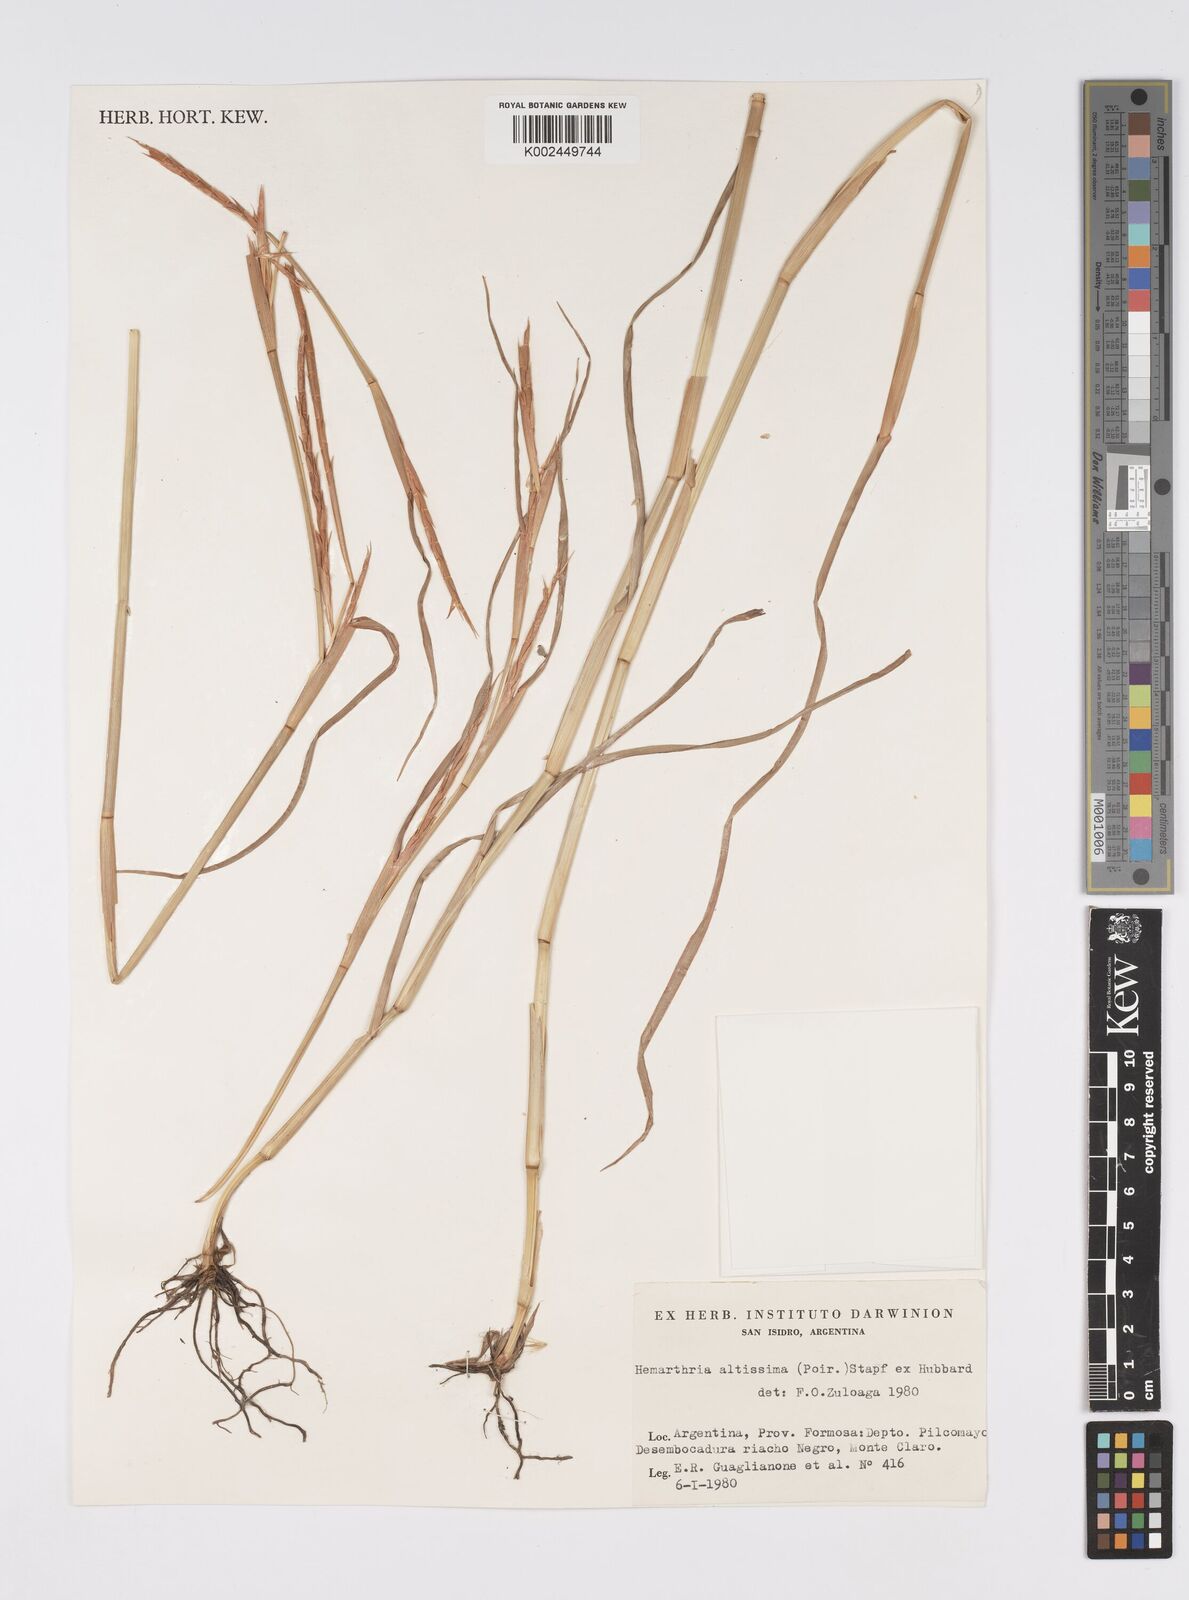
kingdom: Plantae
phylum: Tracheophyta
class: Liliopsida
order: Poales
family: Poaceae
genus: Hemarthria
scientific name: Hemarthria altissima
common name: African jointgrass
